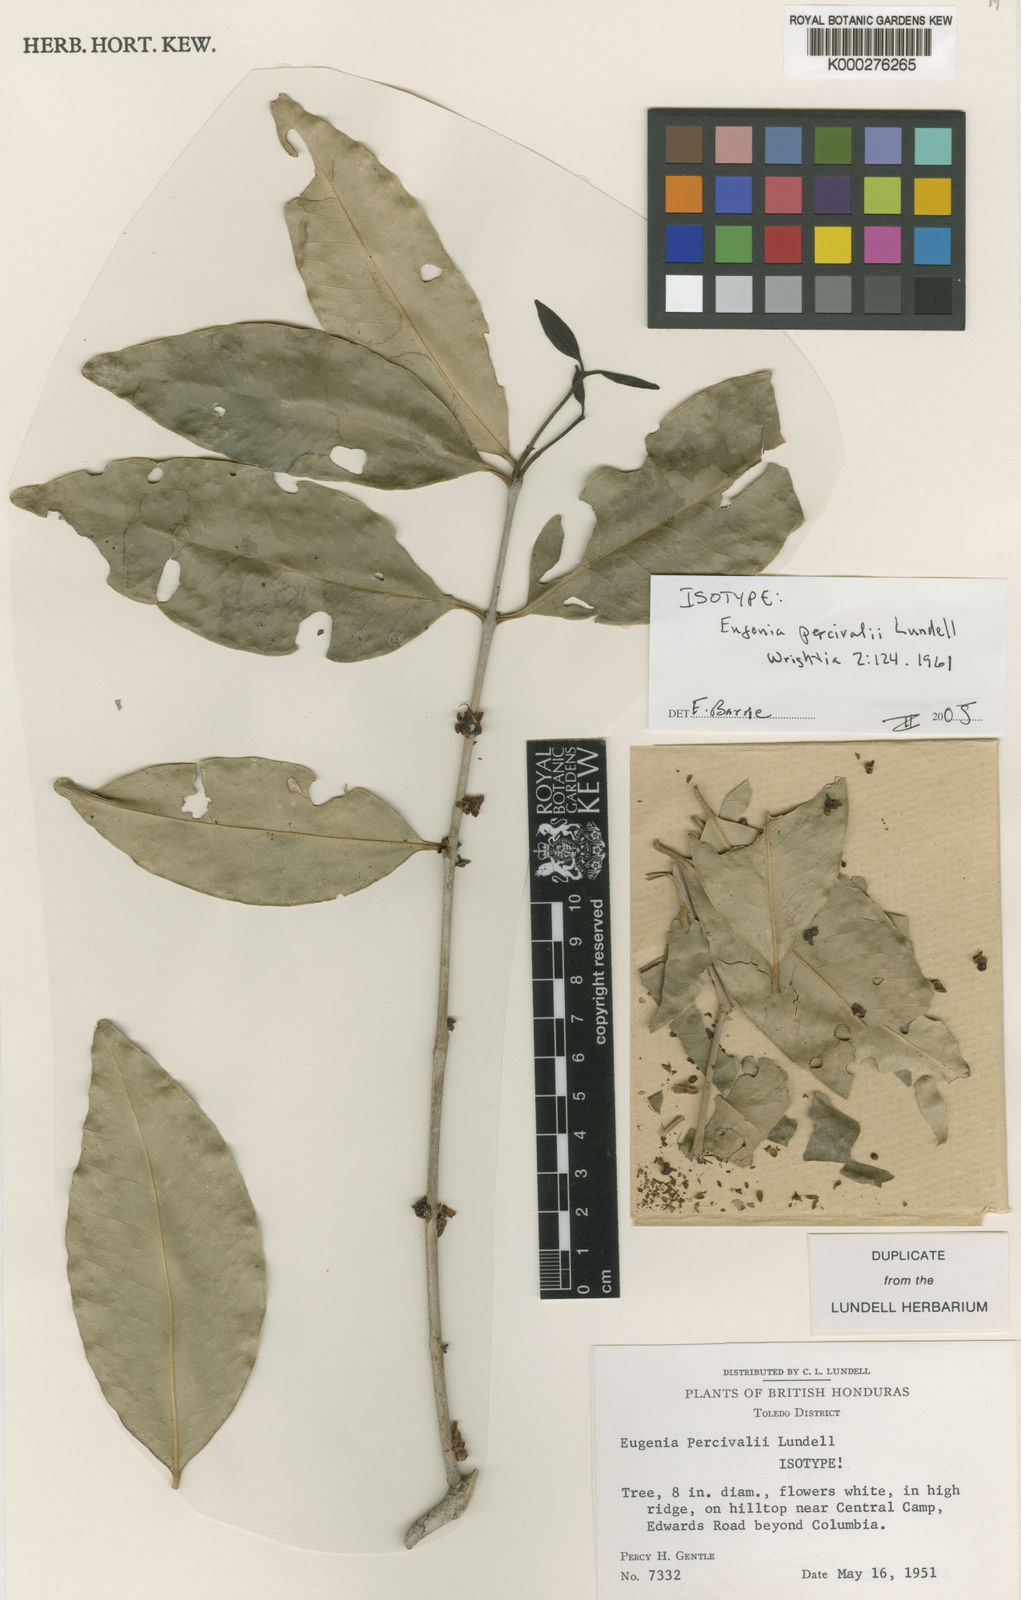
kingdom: Plantae
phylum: Tracheophyta
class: Magnoliopsida
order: Myrtales
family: Myrtaceae
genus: Eugenia
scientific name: Eugenia percivalii
